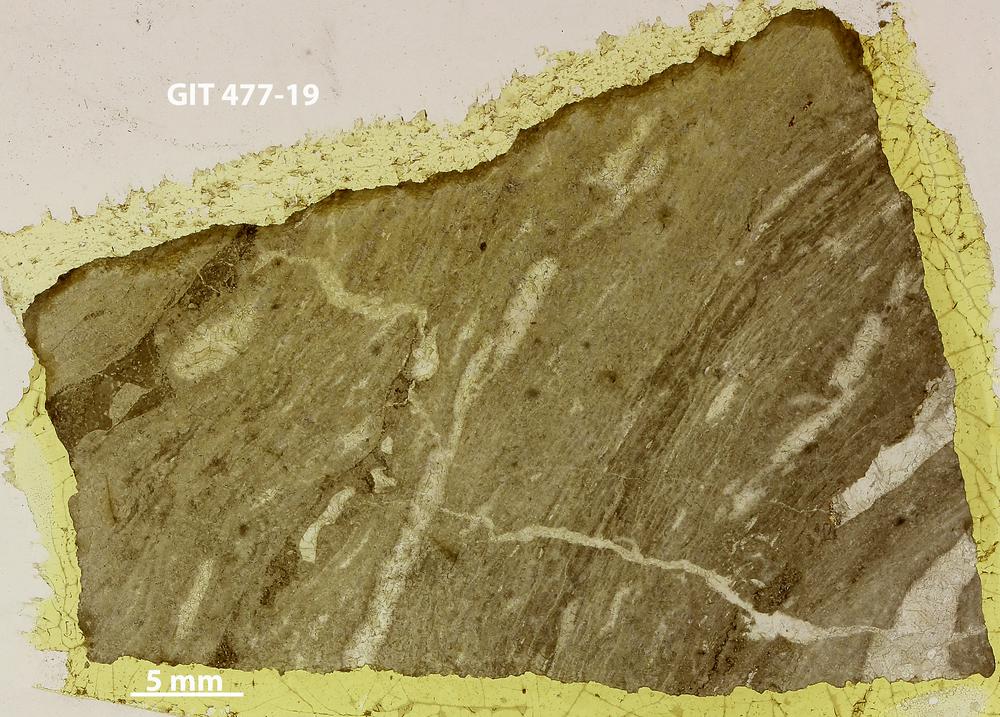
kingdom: Animalia
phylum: Porifera
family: Labechiidae
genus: Labechia
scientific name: Labechia
